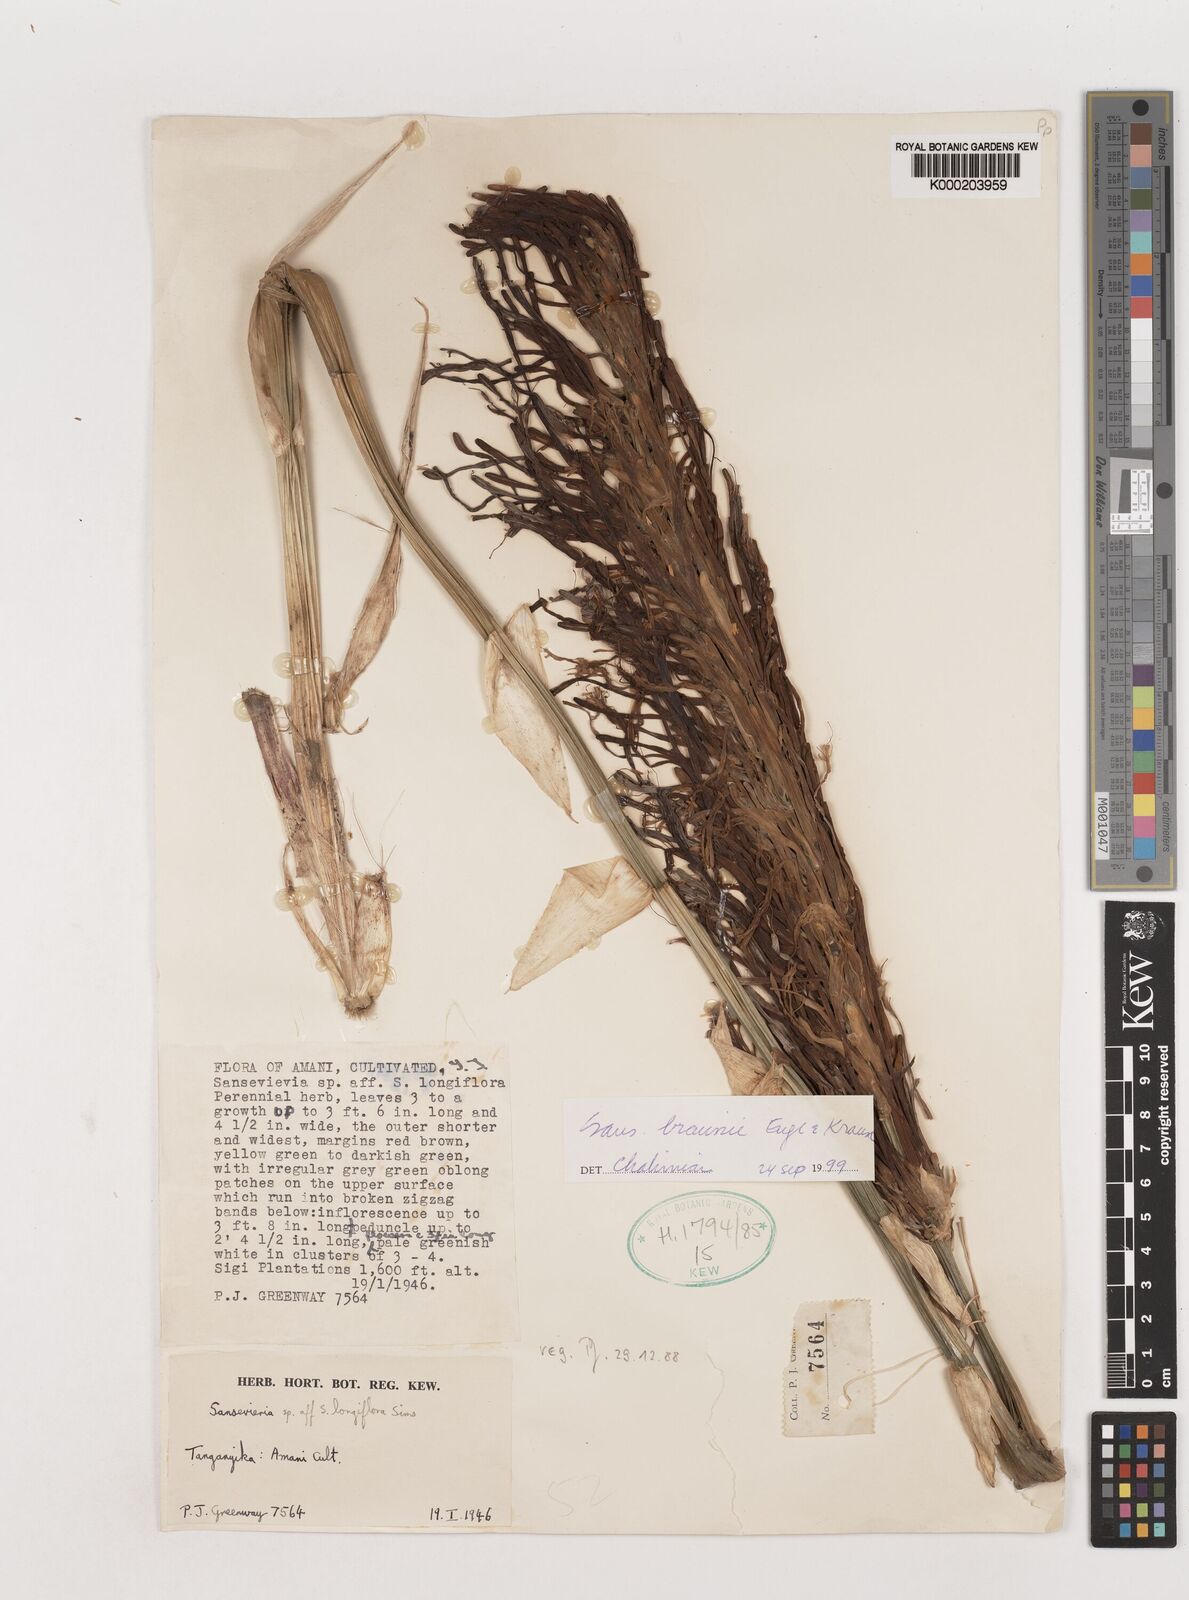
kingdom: Plantae
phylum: Tracheophyta
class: Liliopsida
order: Asparagales
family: Asparagaceae
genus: Dracaena
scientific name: Dracaena testudinea
